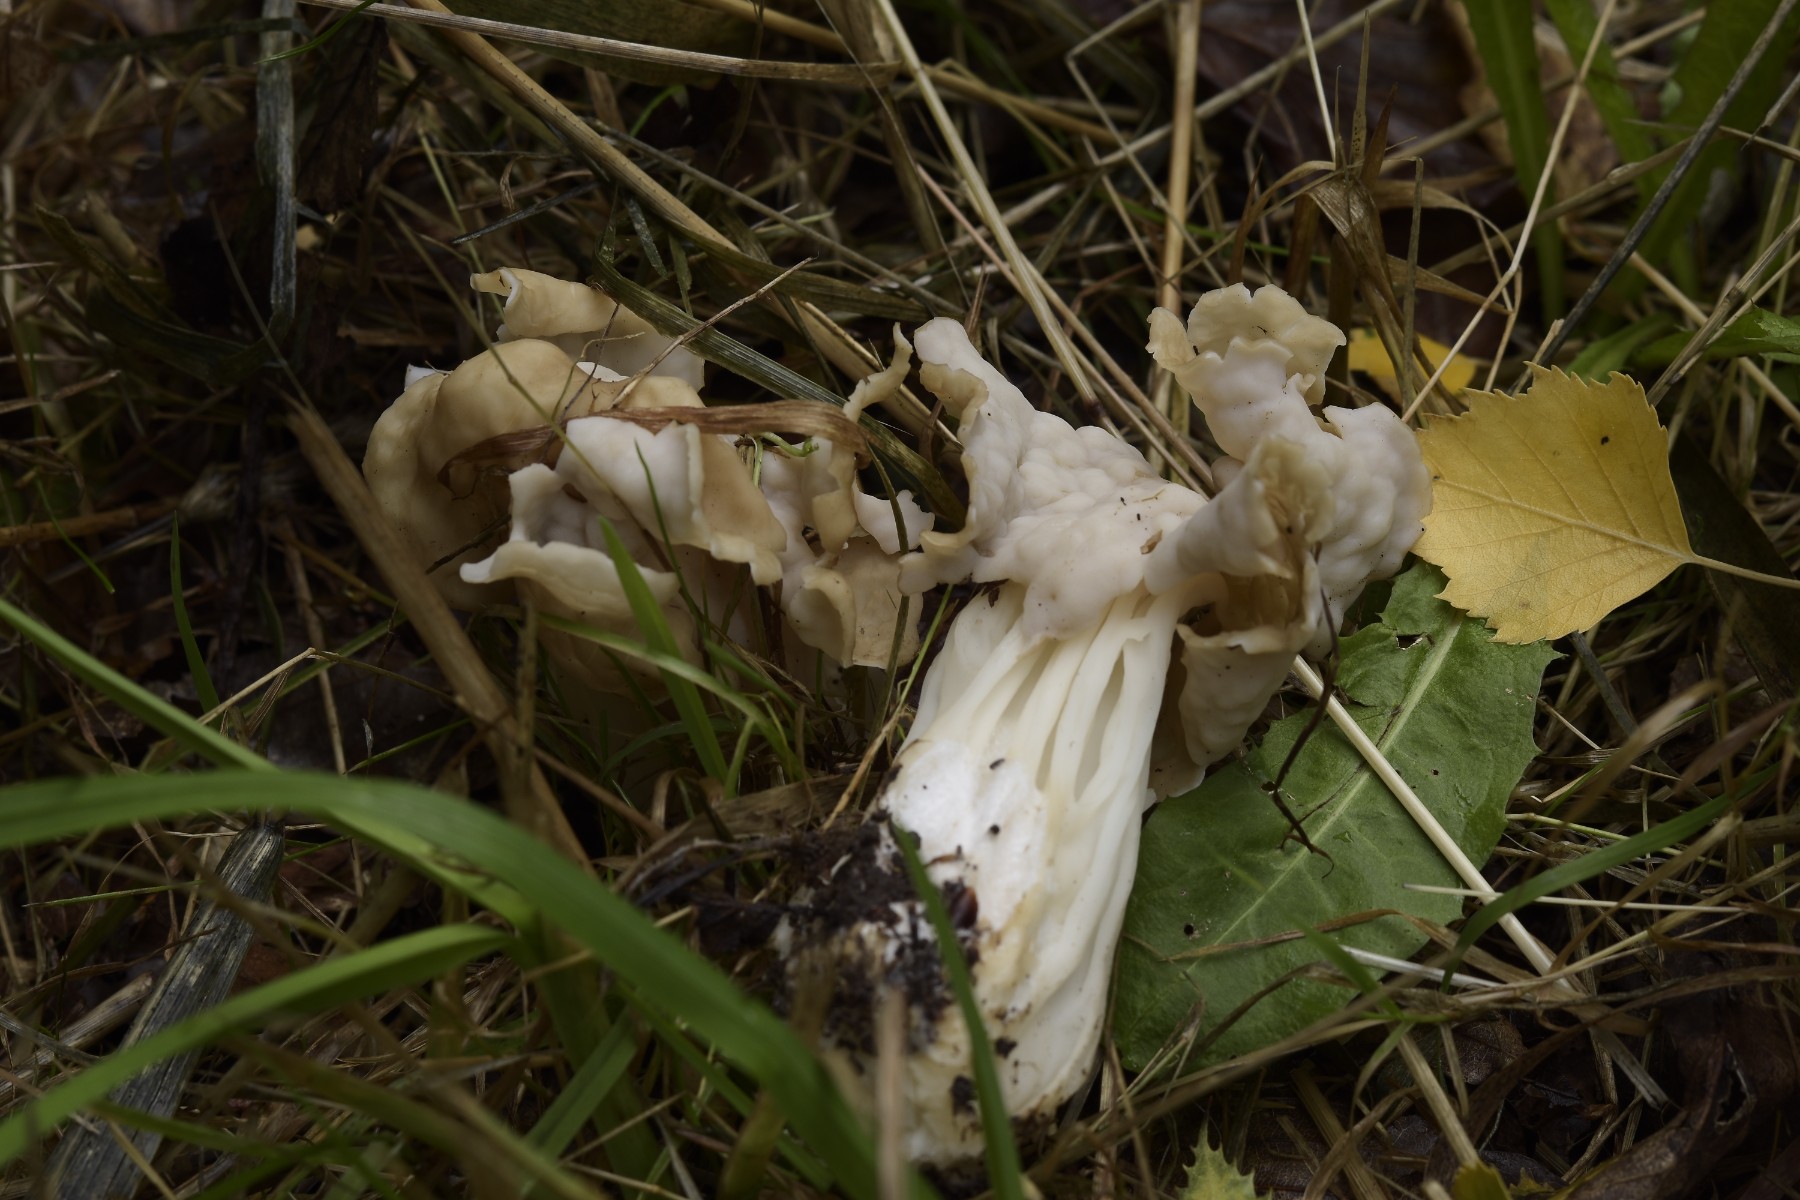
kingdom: Fungi
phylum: Ascomycota
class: Pezizomycetes
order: Pezizales
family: Helvellaceae
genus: Helvella
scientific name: Helvella crispa
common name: kruset foldhat
